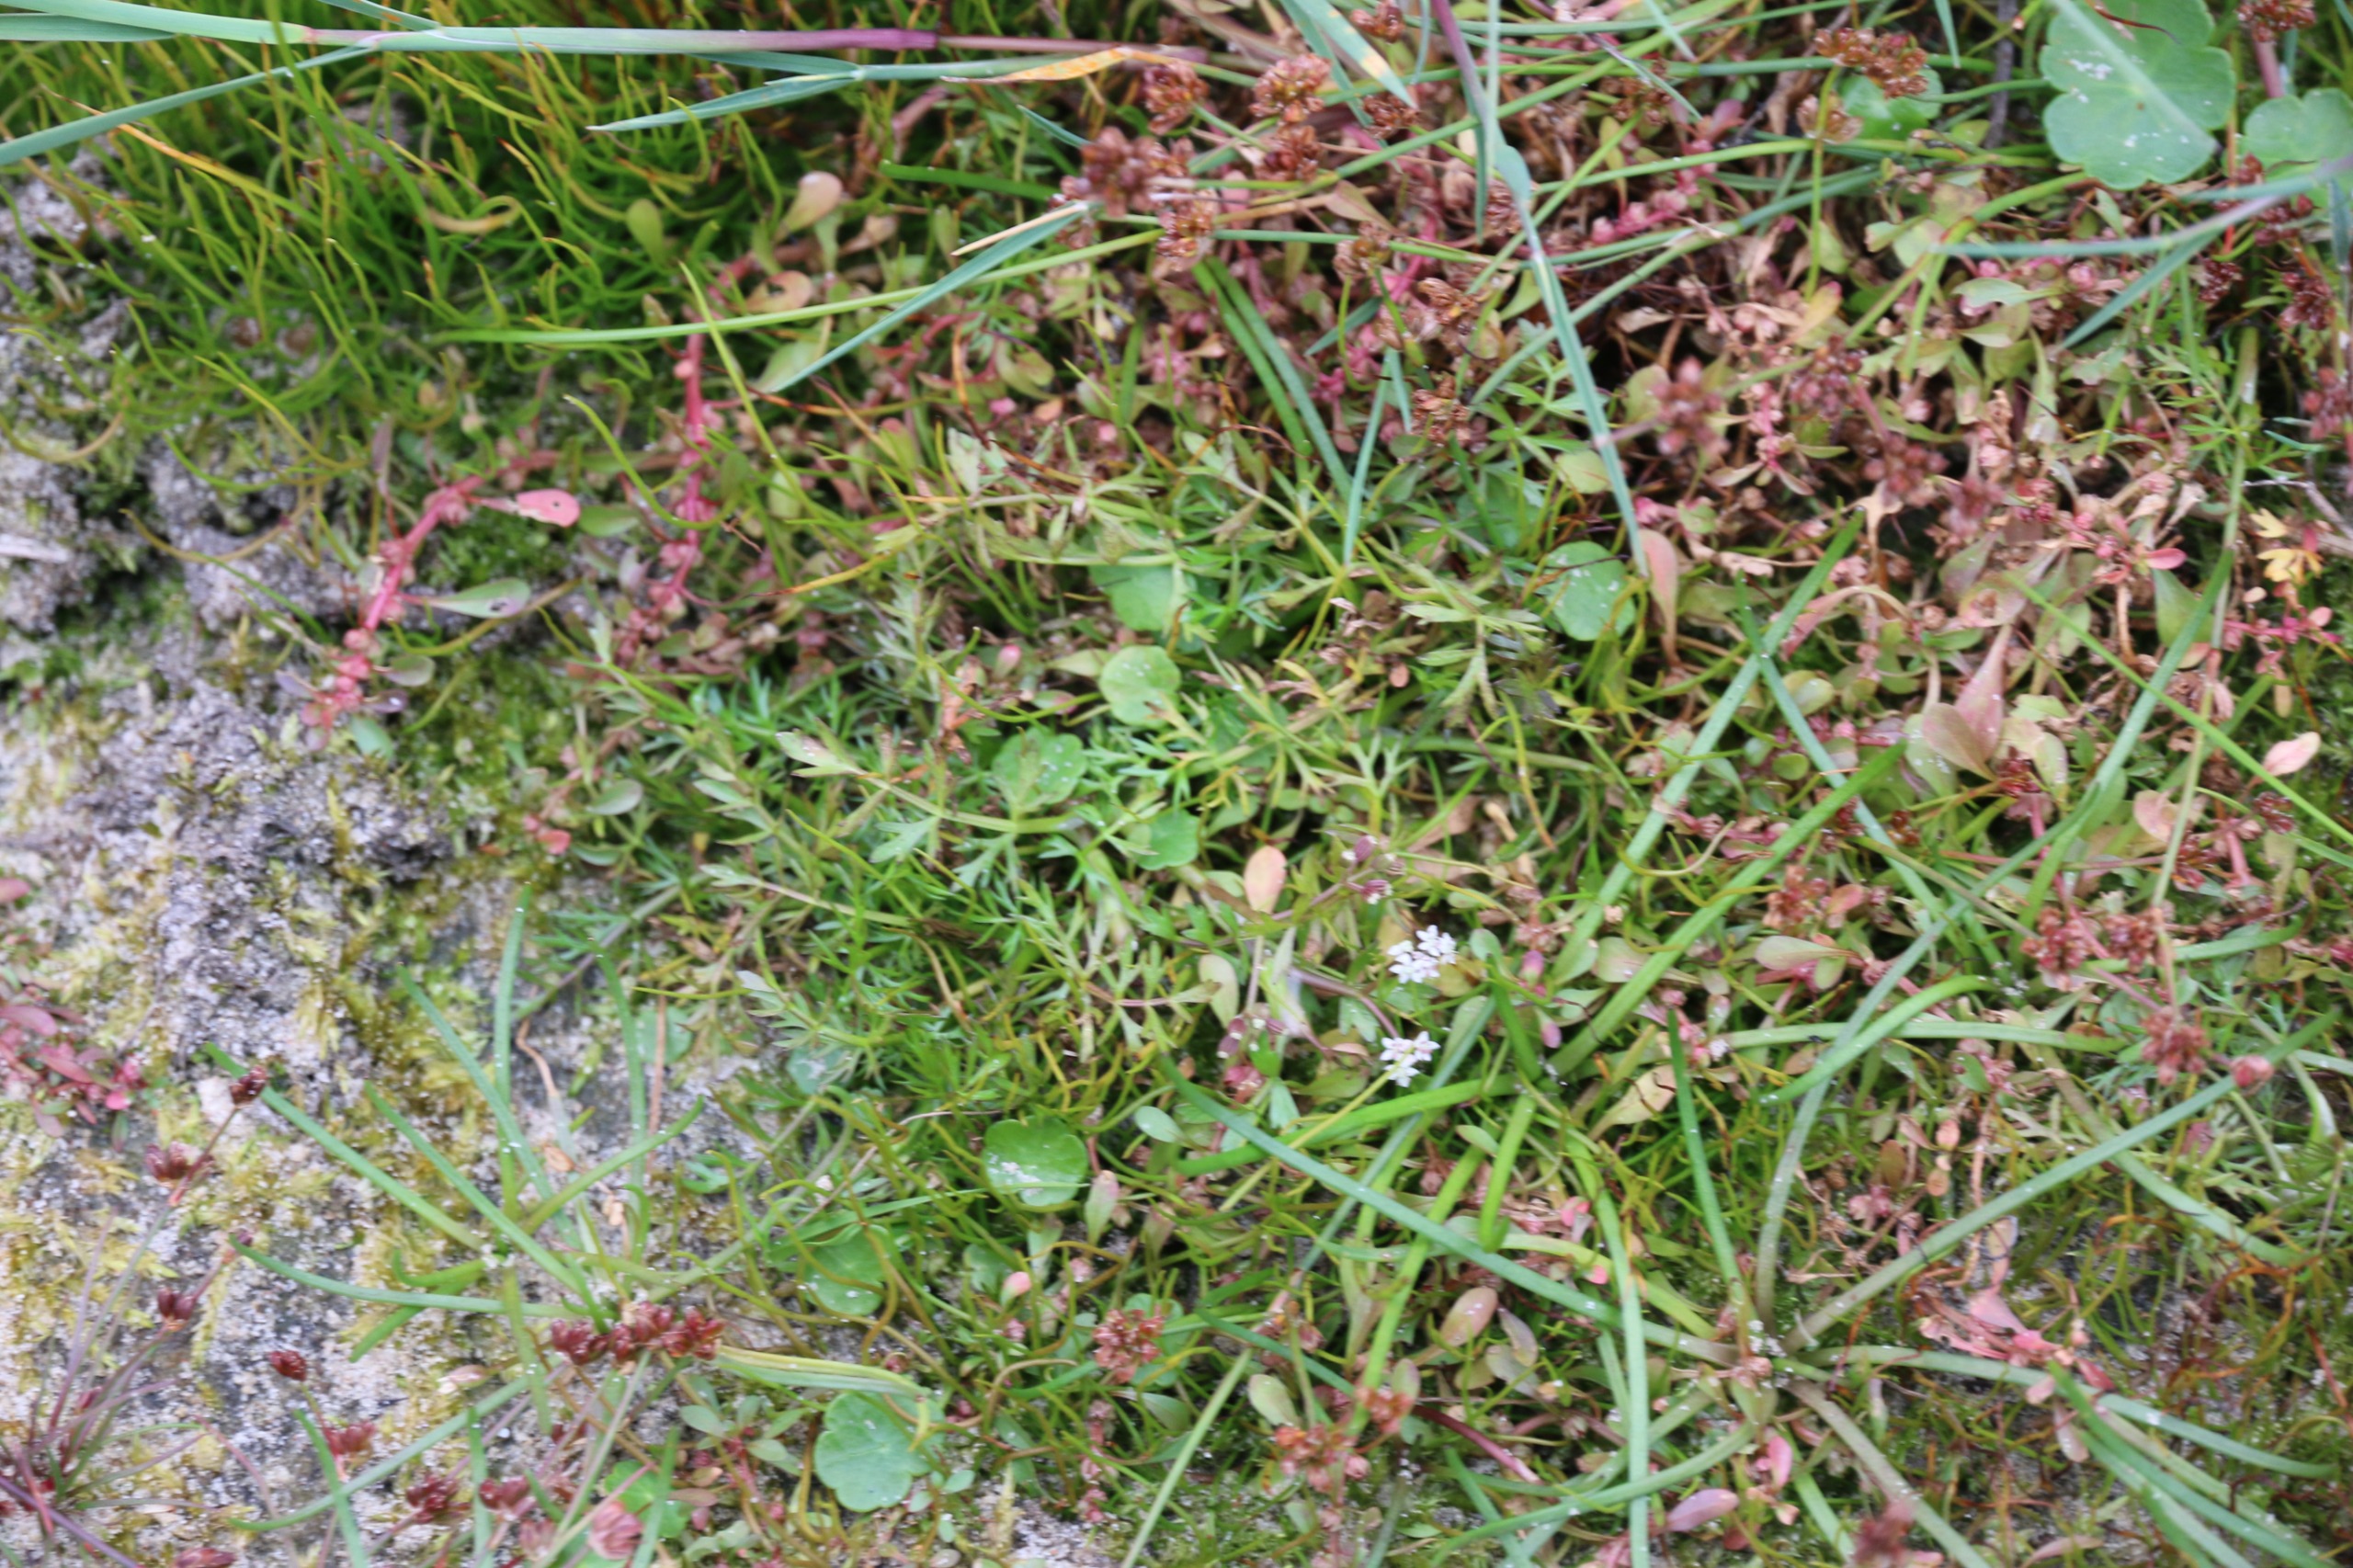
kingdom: Plantae
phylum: Tracheophyta
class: Magnoliopsida
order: Apiales
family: Apiaceae
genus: Helosciadium
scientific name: Helosciadium inundatum
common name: Svømmende sumpskærm
